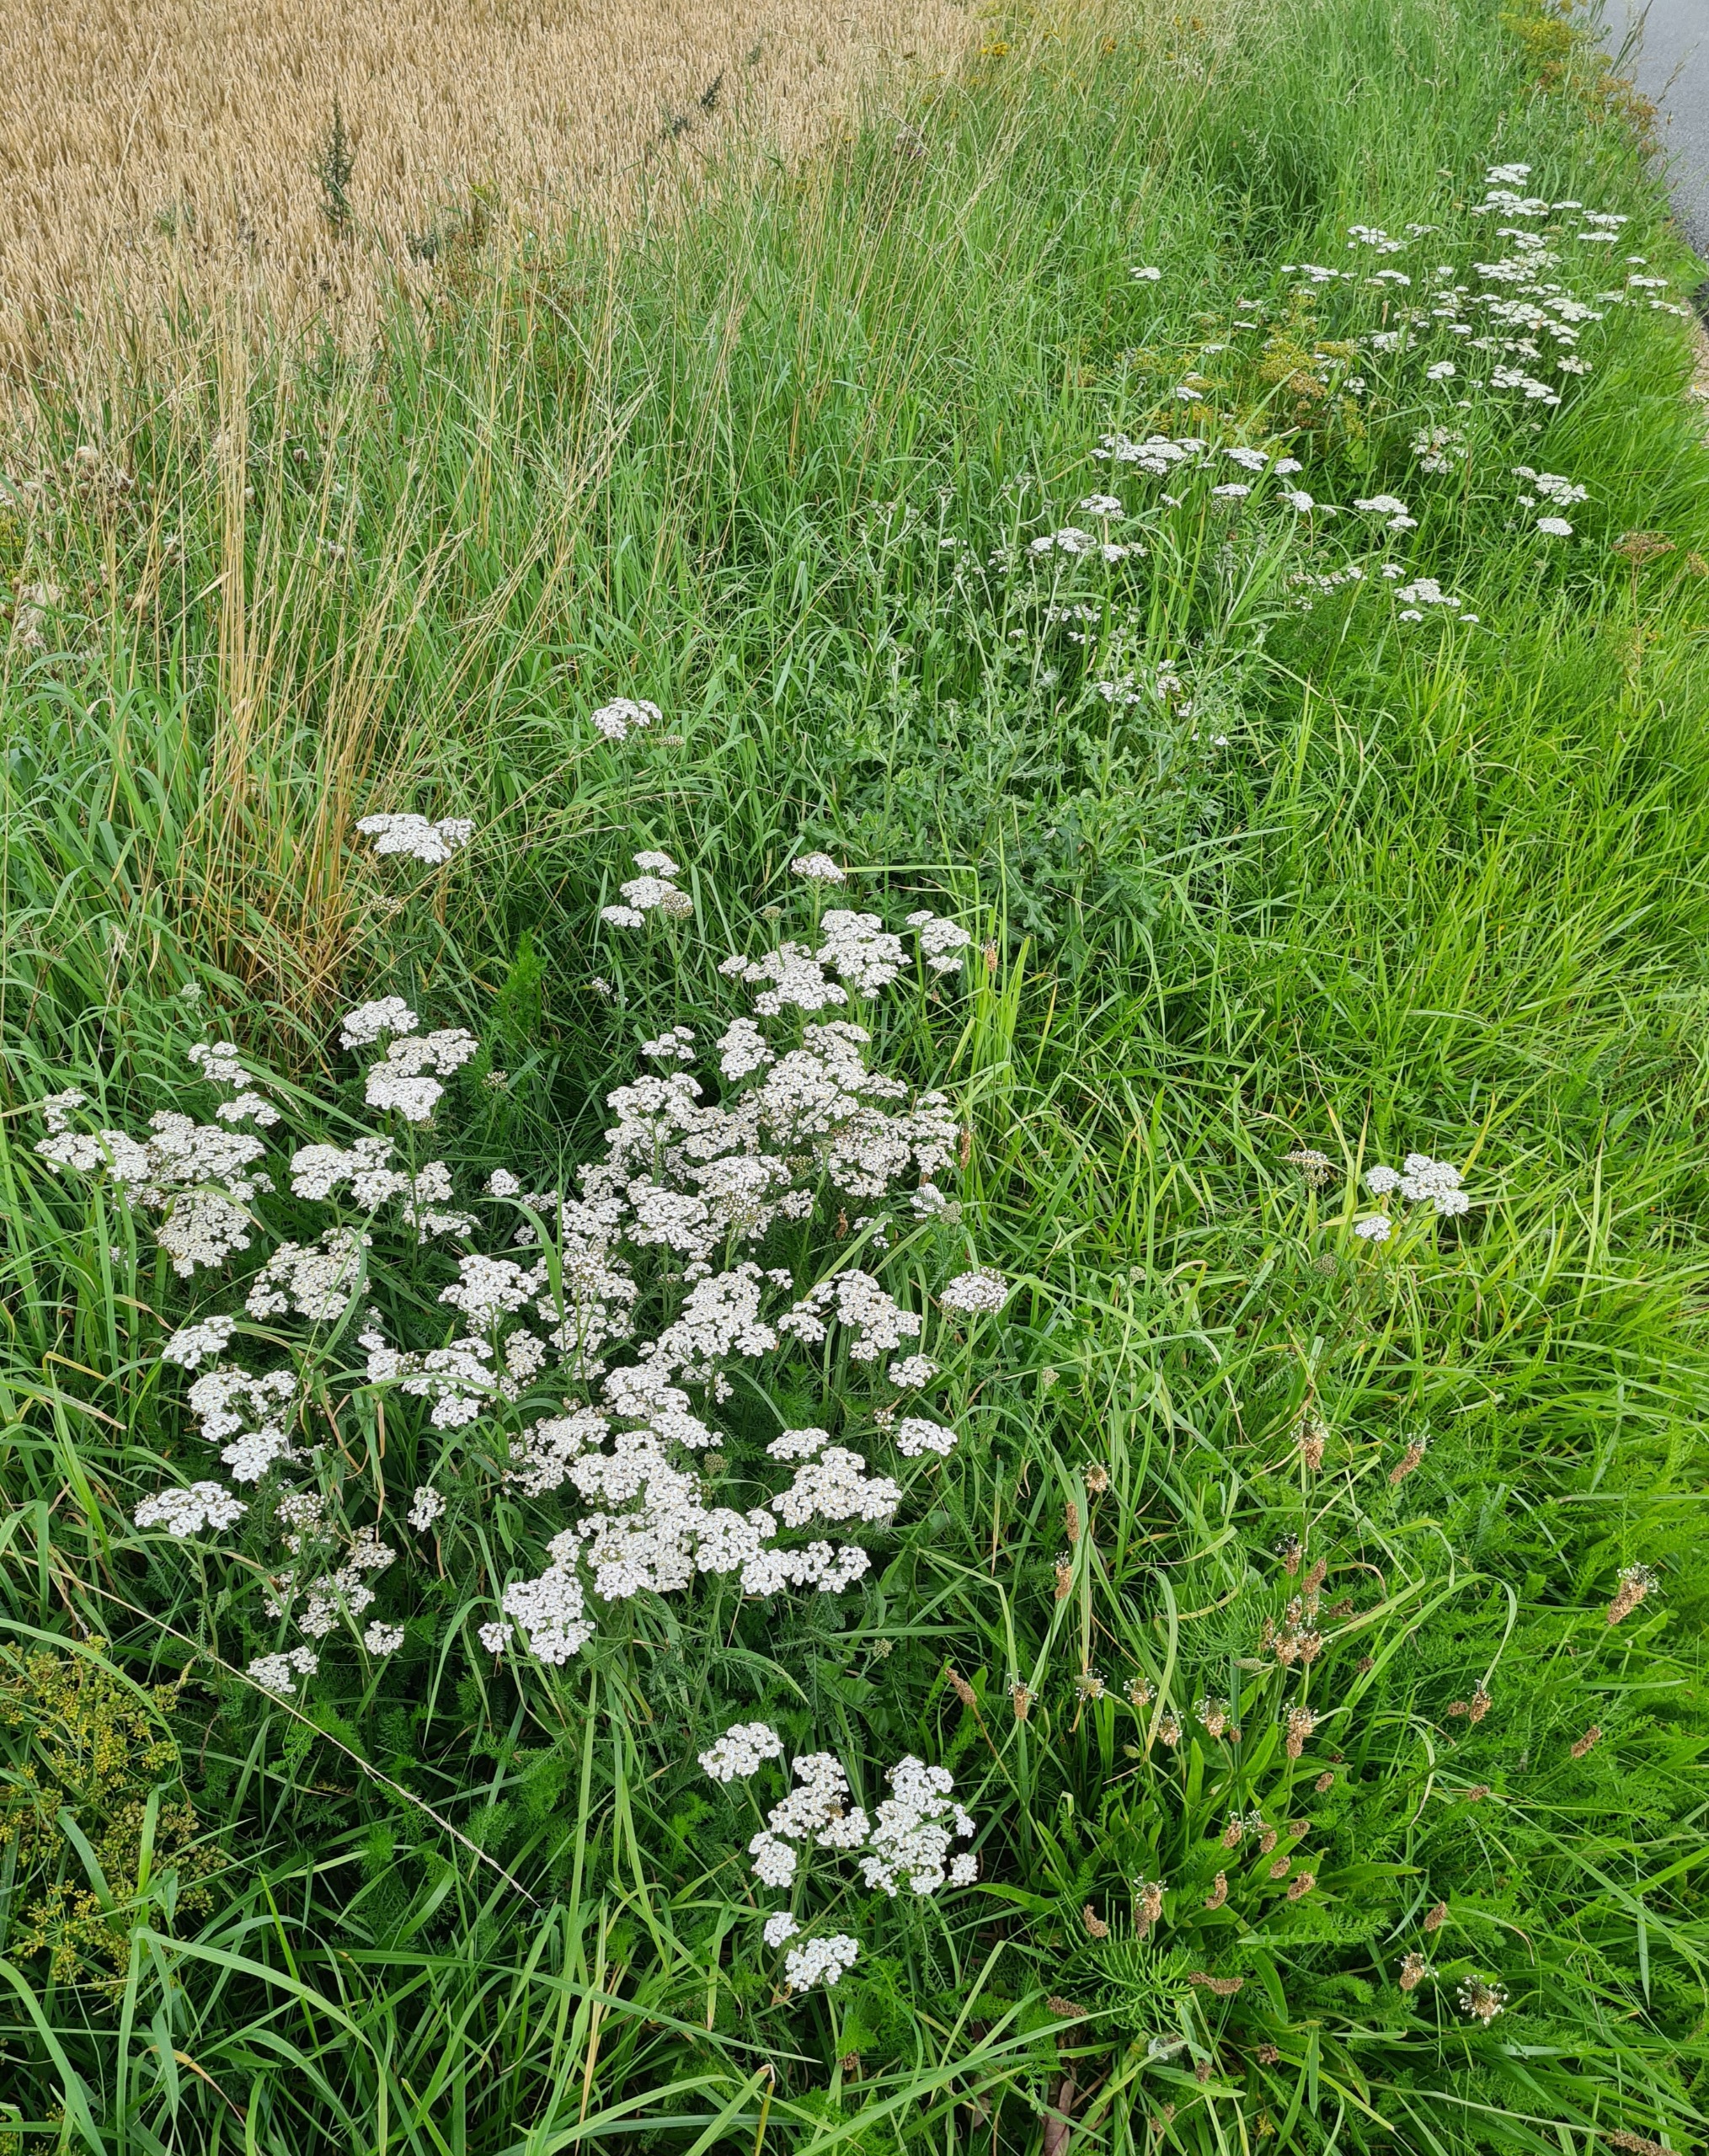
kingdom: Plantae
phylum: Tracheophyta
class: Magnoliopsida
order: Asterales
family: Asteraceae
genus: Achillea
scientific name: Achillea millefolium
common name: Almindelig røllike
